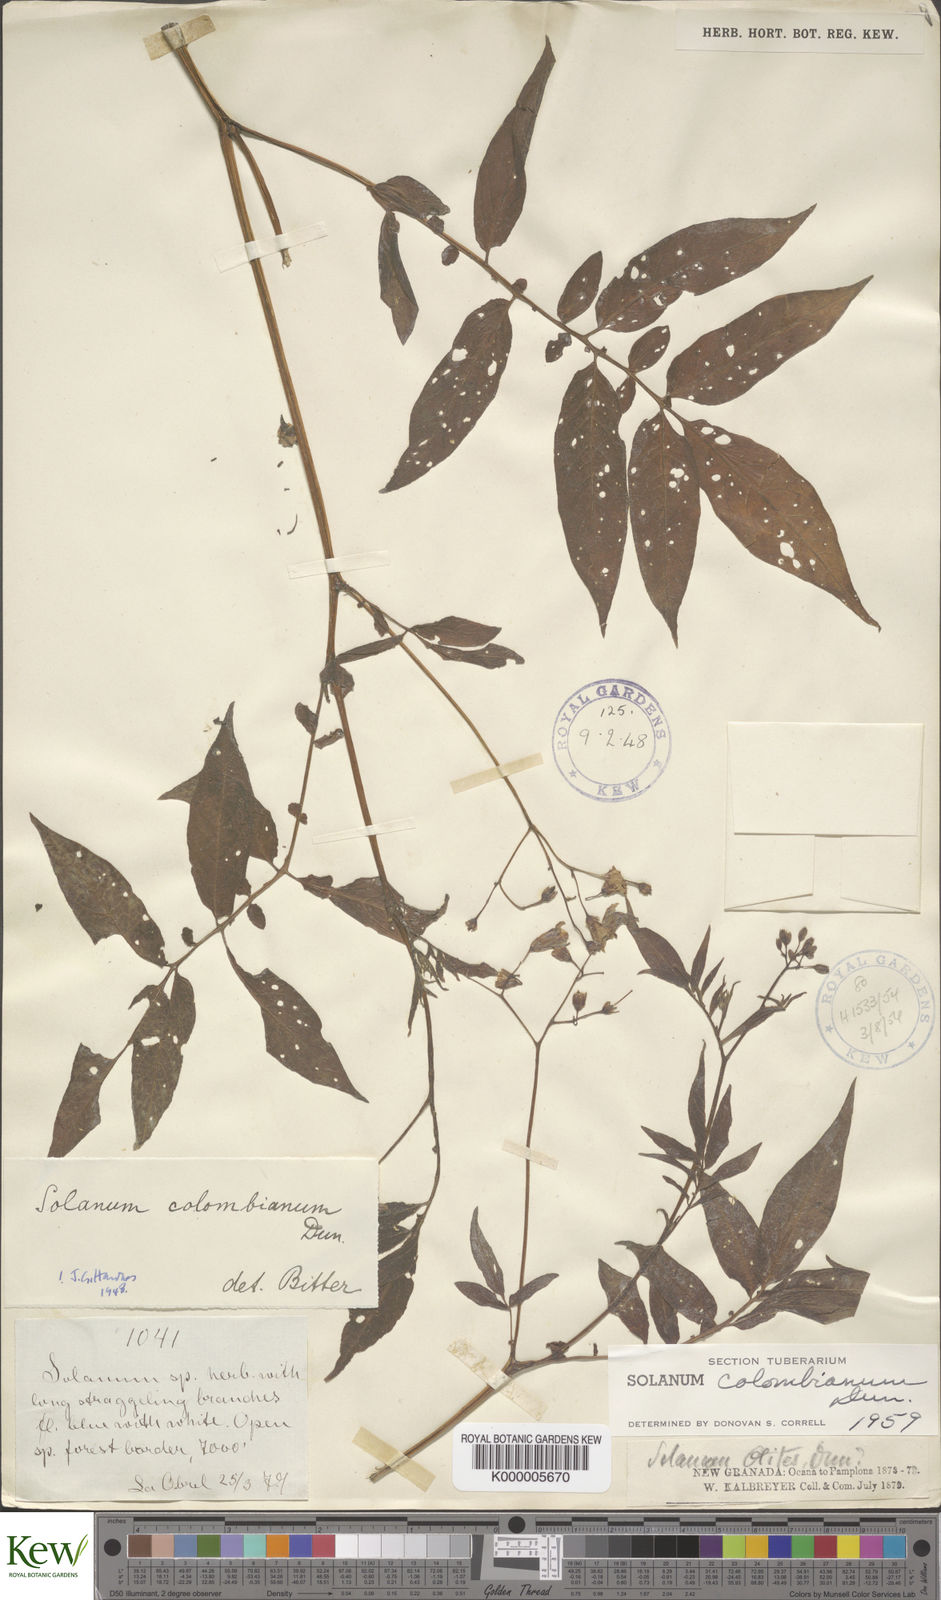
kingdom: Plantae
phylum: Tracheophyta
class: Magnoliopsida
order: Solanales
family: Solanaceae
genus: Solanum
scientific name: Solanum colombianum
